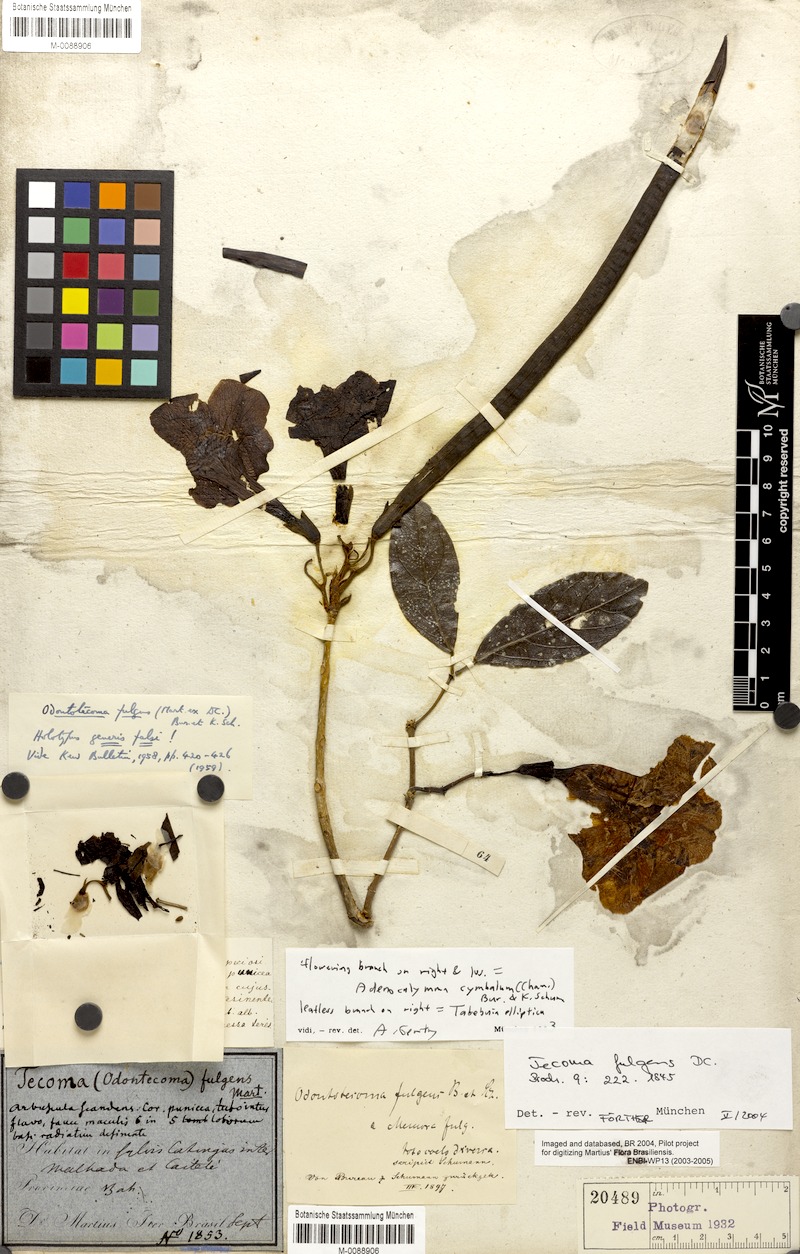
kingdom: Plantae
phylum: Tracheophyta
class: Magnoliopsida
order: Lamiales
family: Bignoniaceae
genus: Adenocalymma
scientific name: Adenocalymma cymbalum
